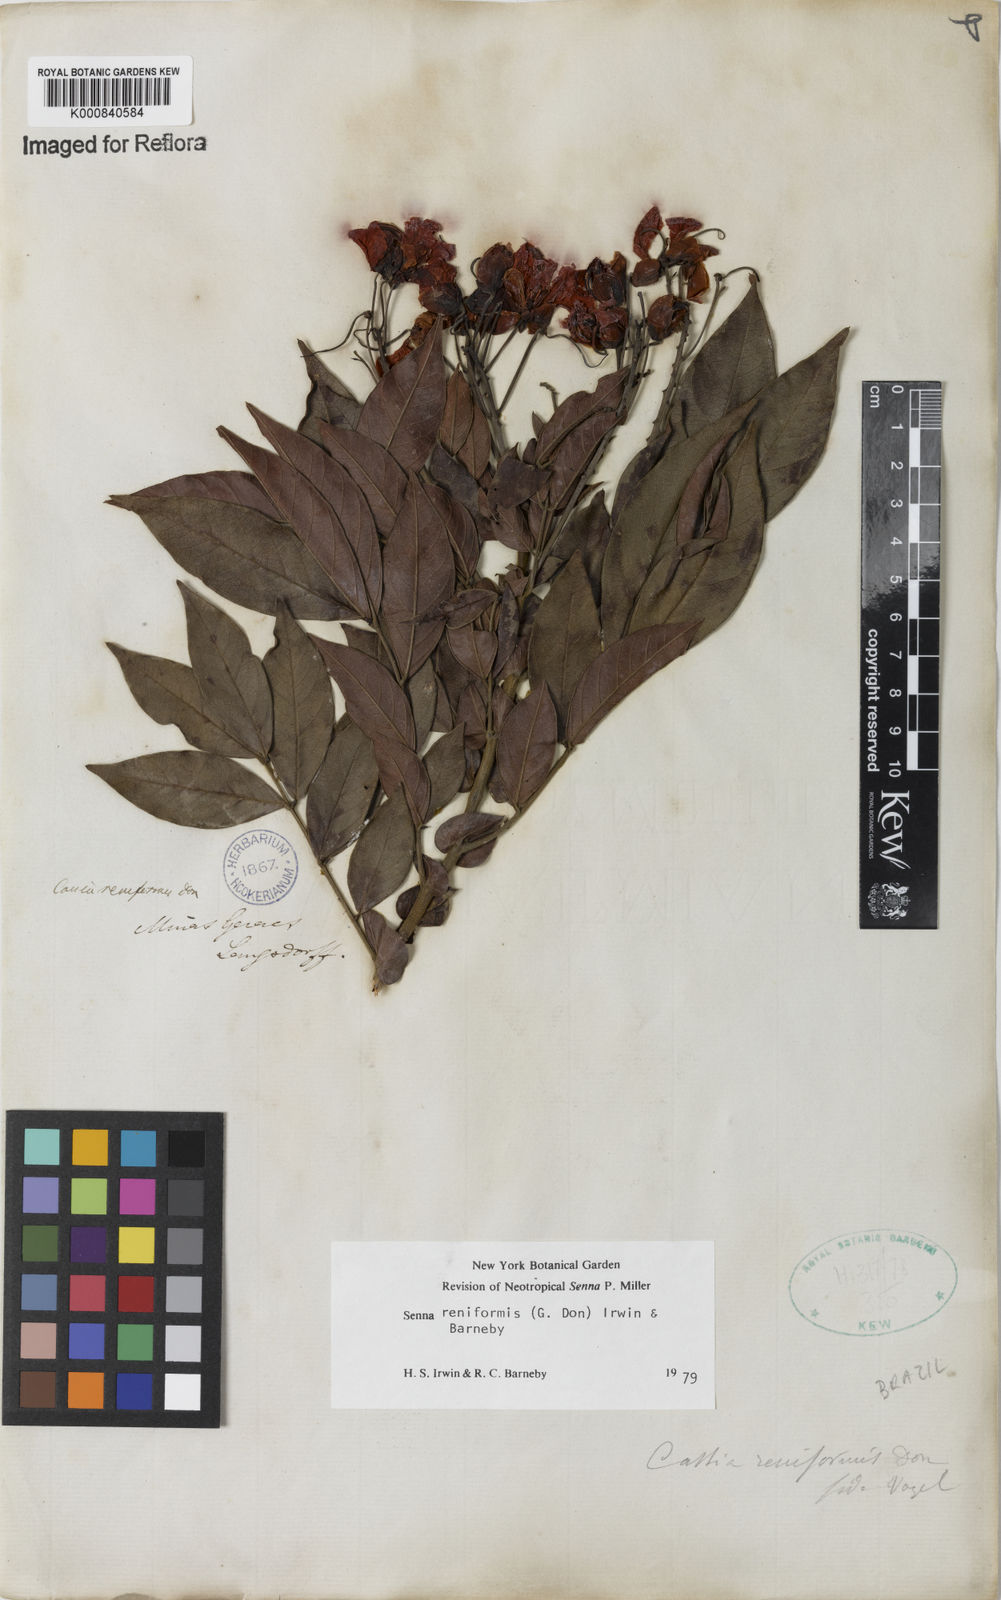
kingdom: Plantae
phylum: Tracheophyta
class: Magnoliopsida
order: Fabales
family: Fabaceae
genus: Senna
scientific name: Senna reniformis
